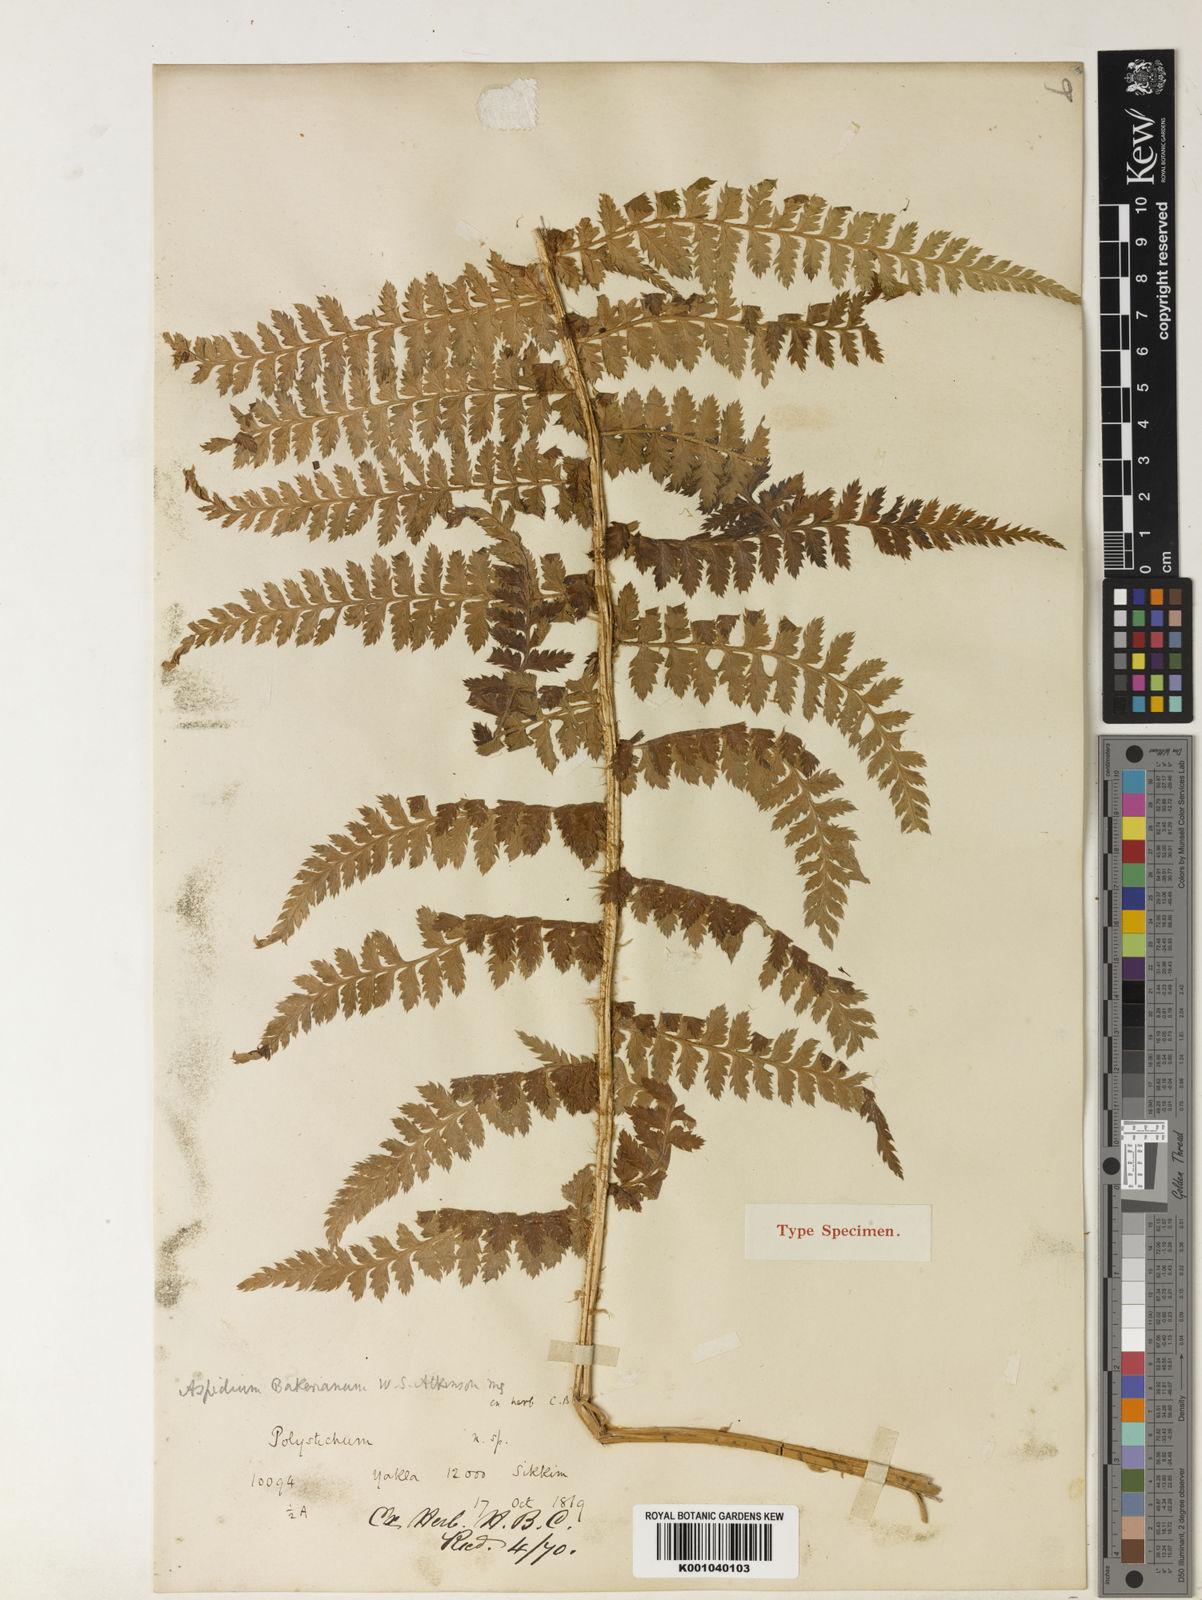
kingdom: Plantae
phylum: Tracheophyta
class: Polypodiopsida
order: Polypodiales
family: Dryopteridaceae
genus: Polystichum
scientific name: Polystichum bakerianum
